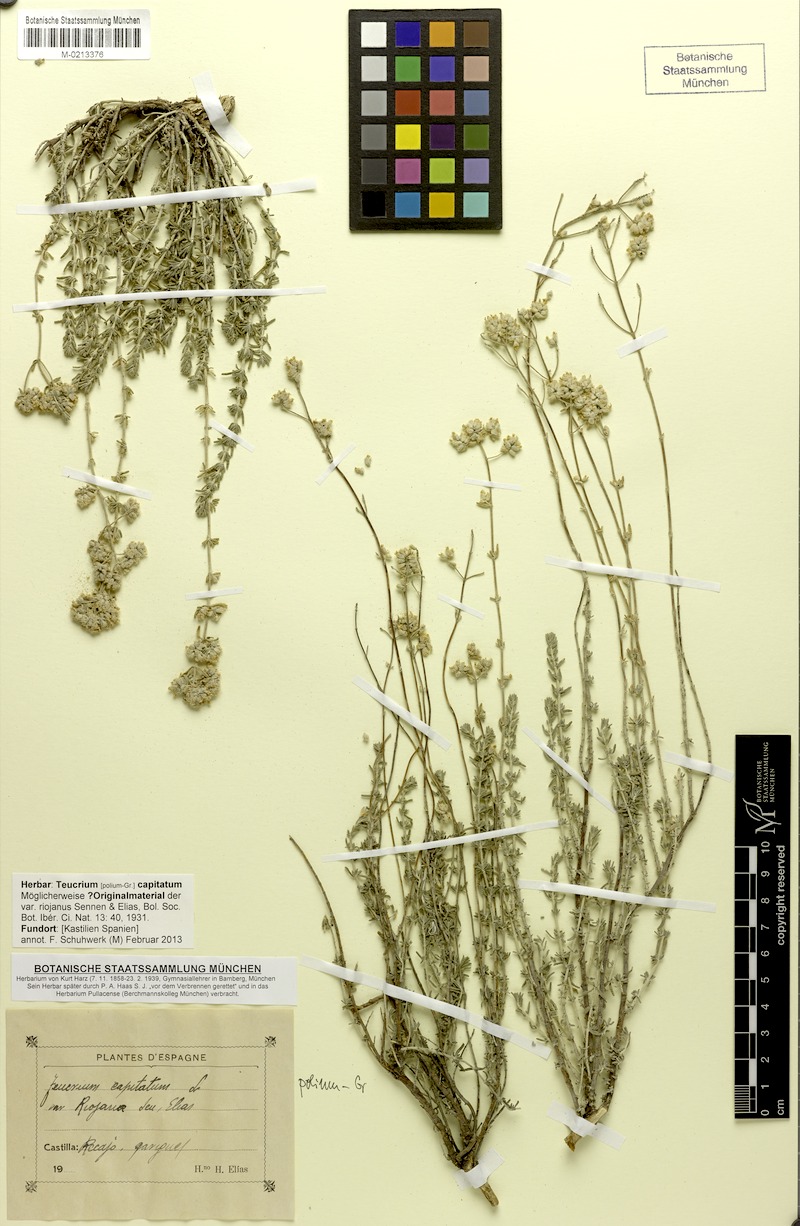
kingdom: Plantae
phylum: Tracheophyta
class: Magnoliopsida
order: Lamiales
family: Lamiaceae
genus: Teucrium
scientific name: Teucrium capitatum
